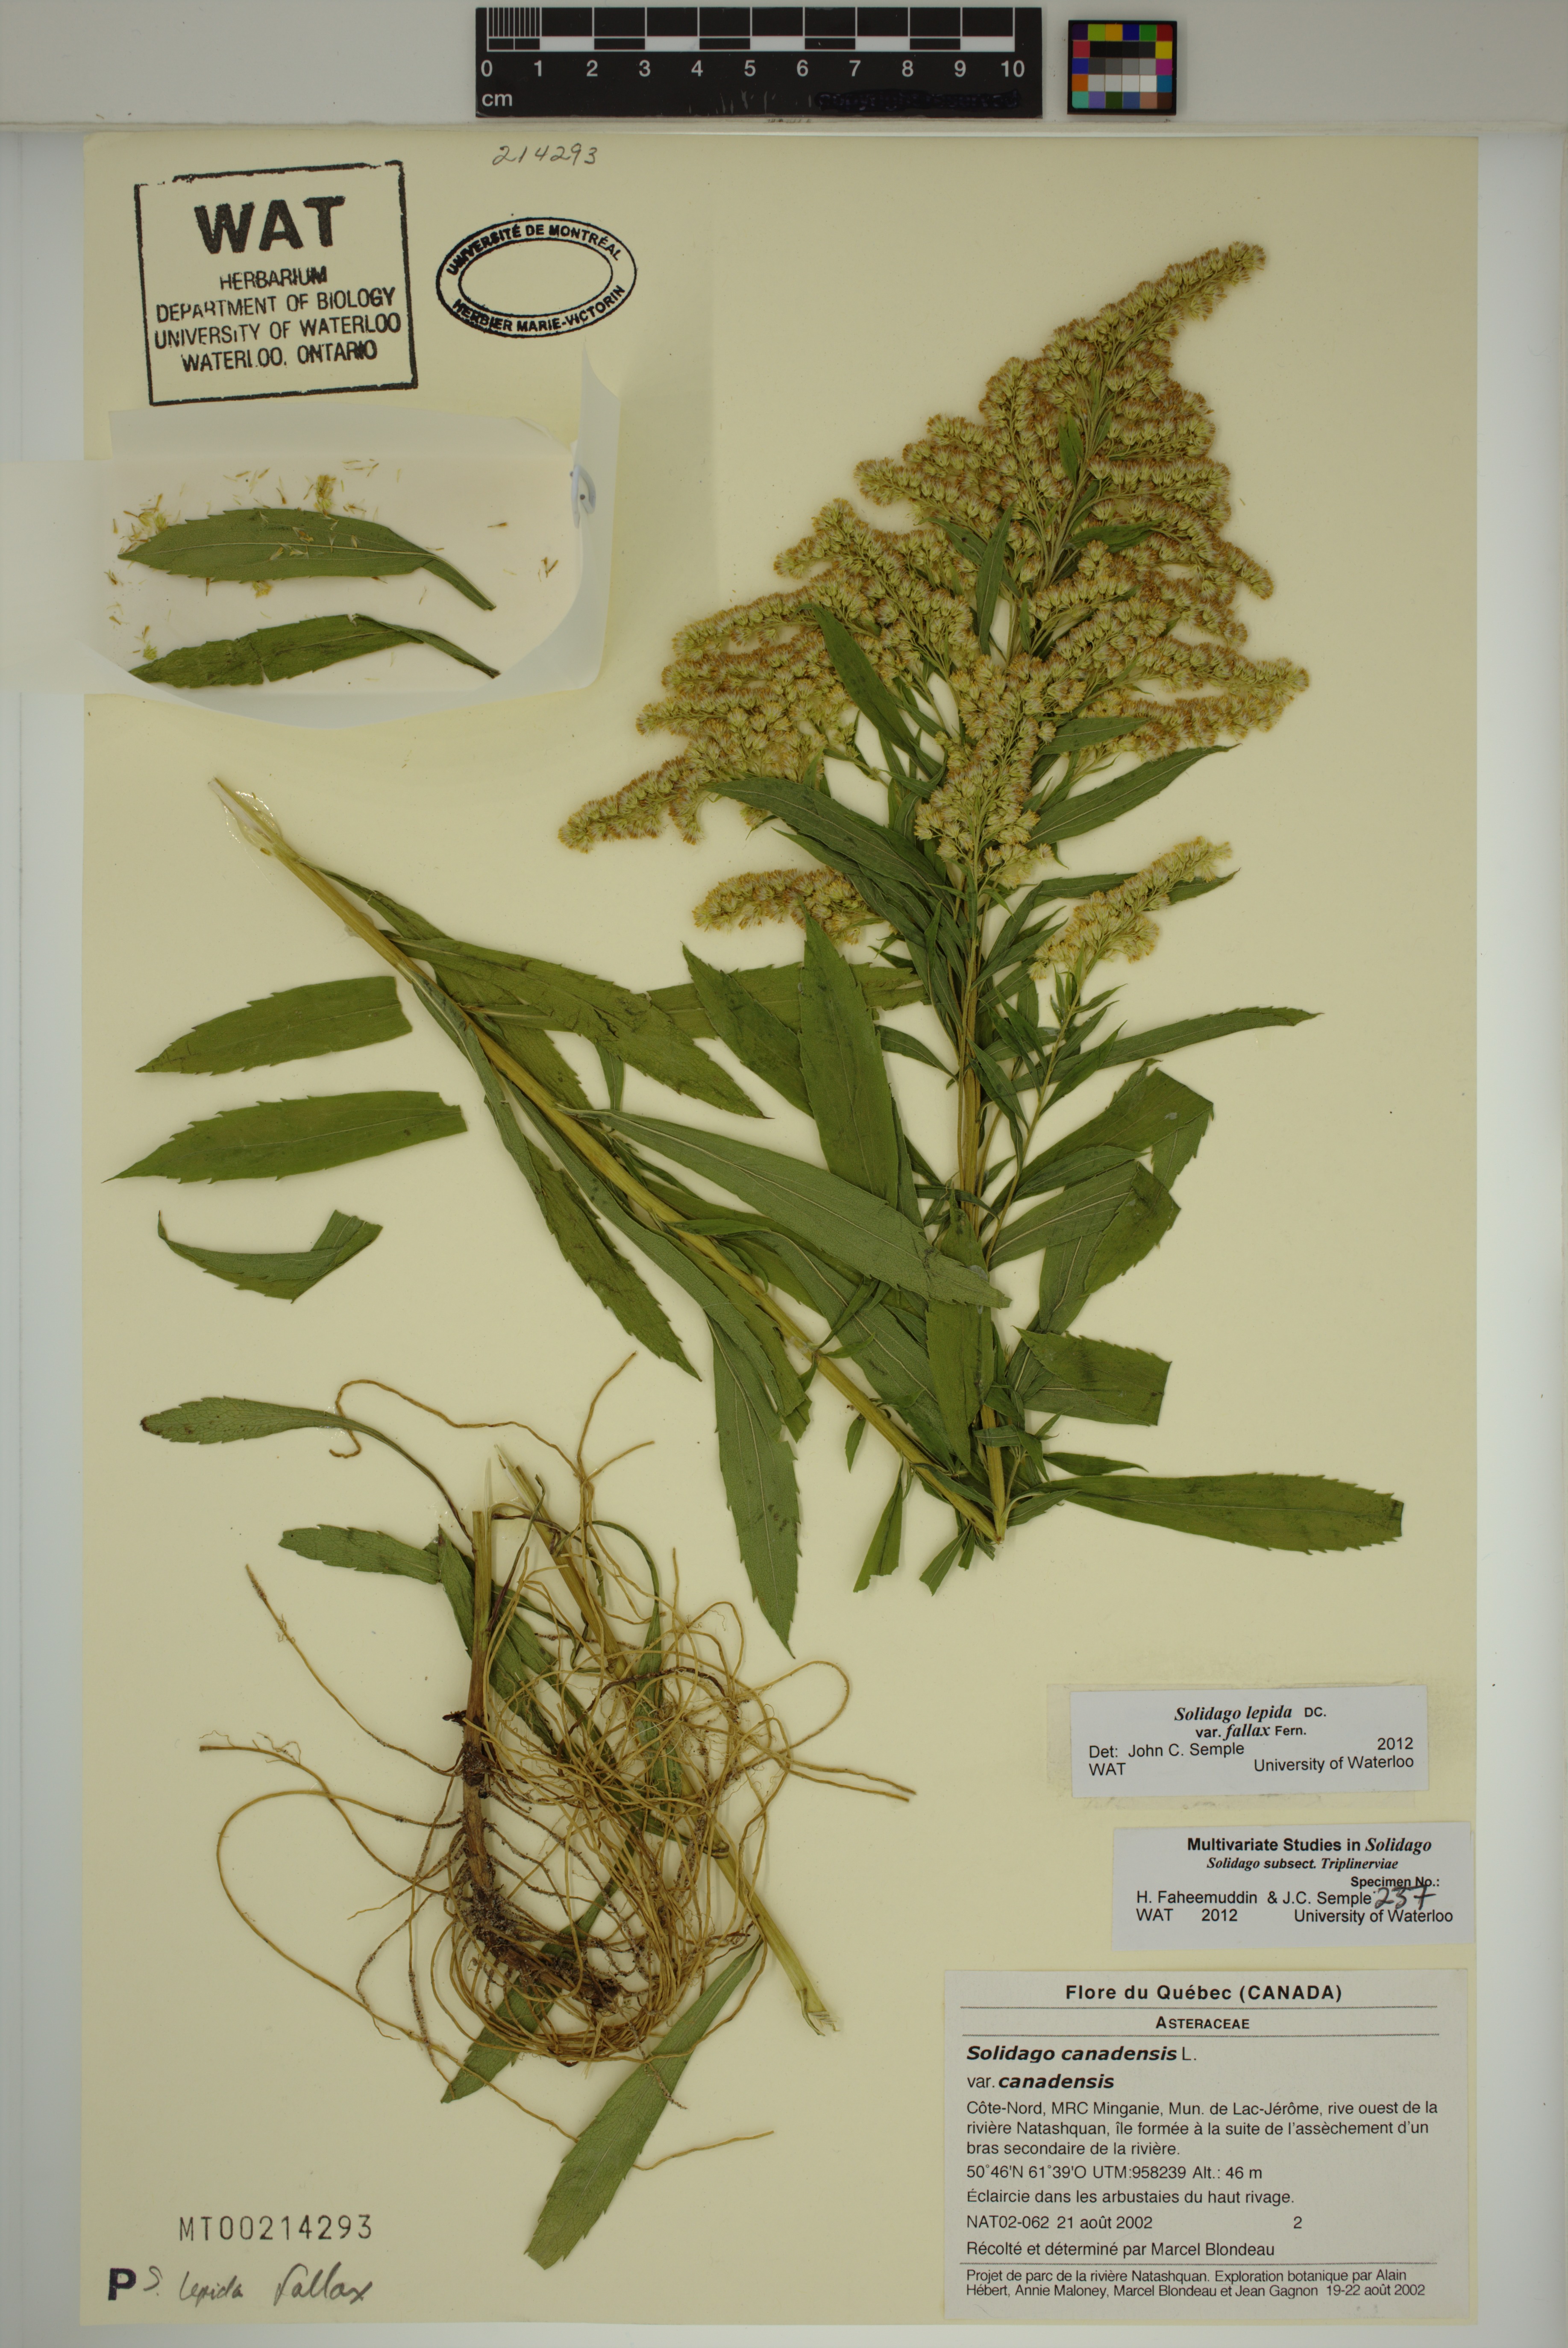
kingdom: Plantae
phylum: Tracheophyta
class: Magnoliopsida
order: Asterales
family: Asteraceae
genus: Solidago
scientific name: Solidago fallax
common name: Big-toothed canada goldenrod
